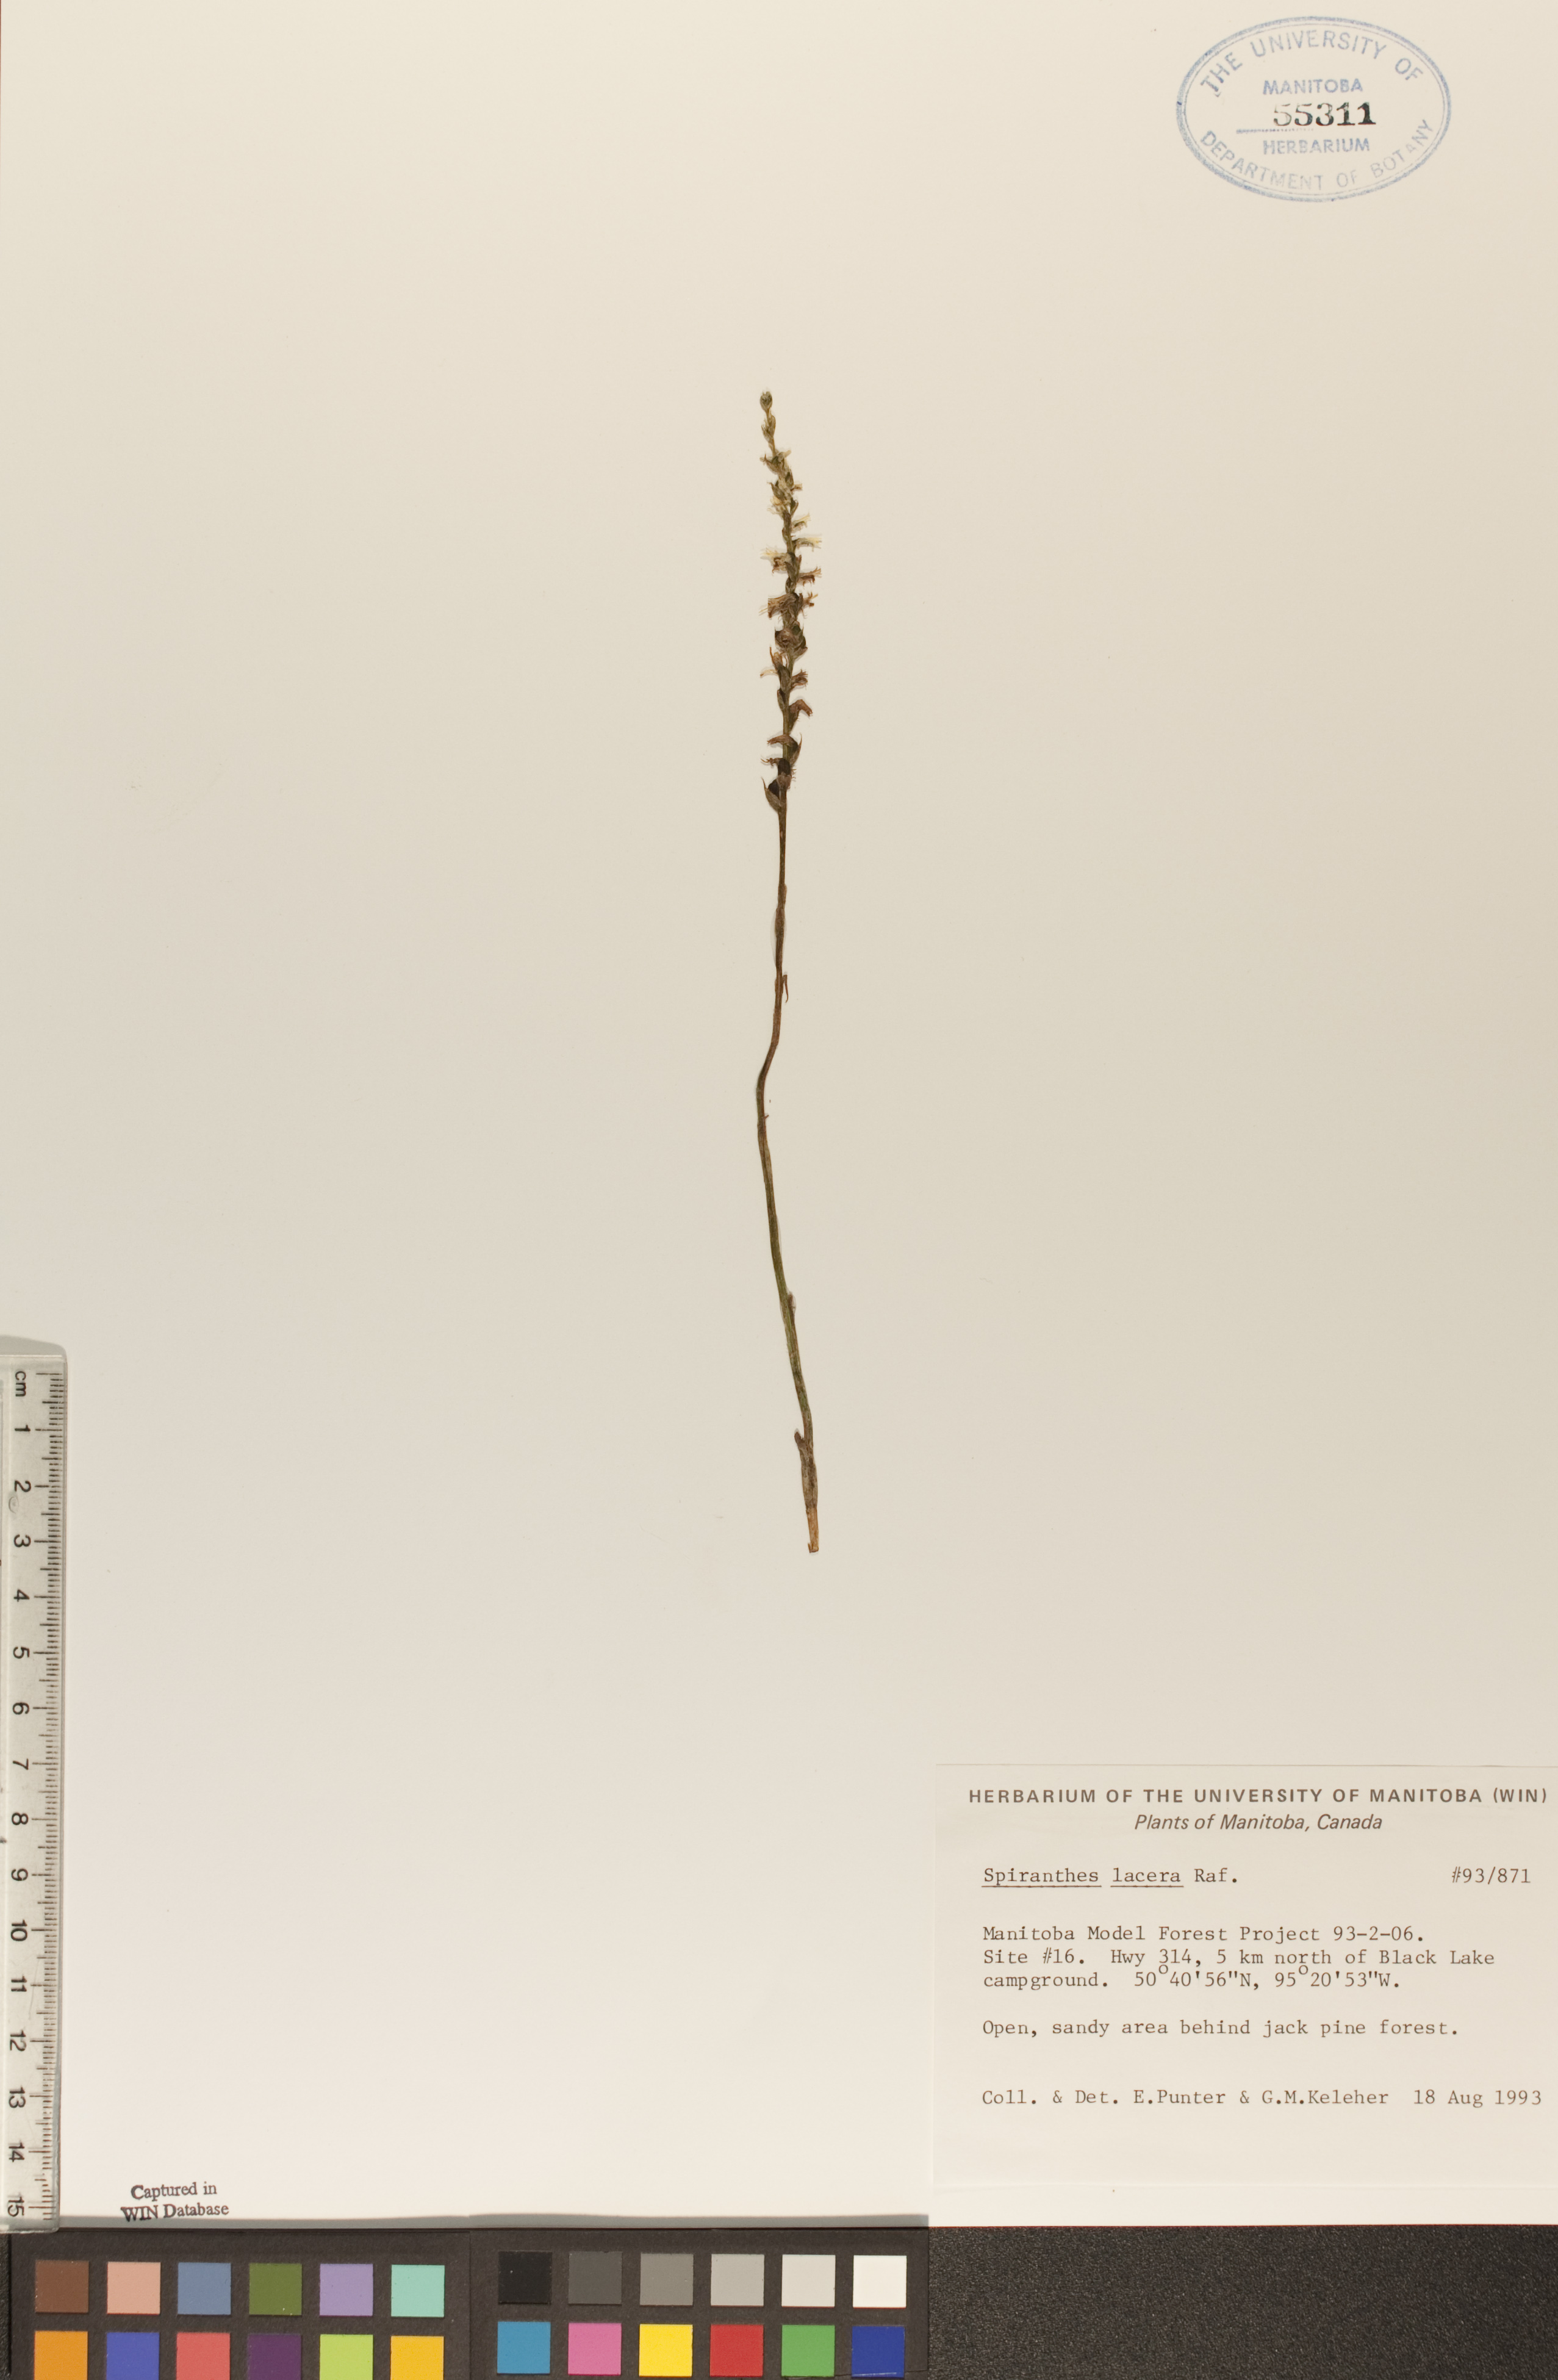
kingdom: Plantae
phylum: Tracheophyta
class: Liliopsida
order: Asparagales
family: Orchidaceae
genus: Spiranthes
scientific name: Spiranthes lacera
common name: Northern slender ladies'-tresses
